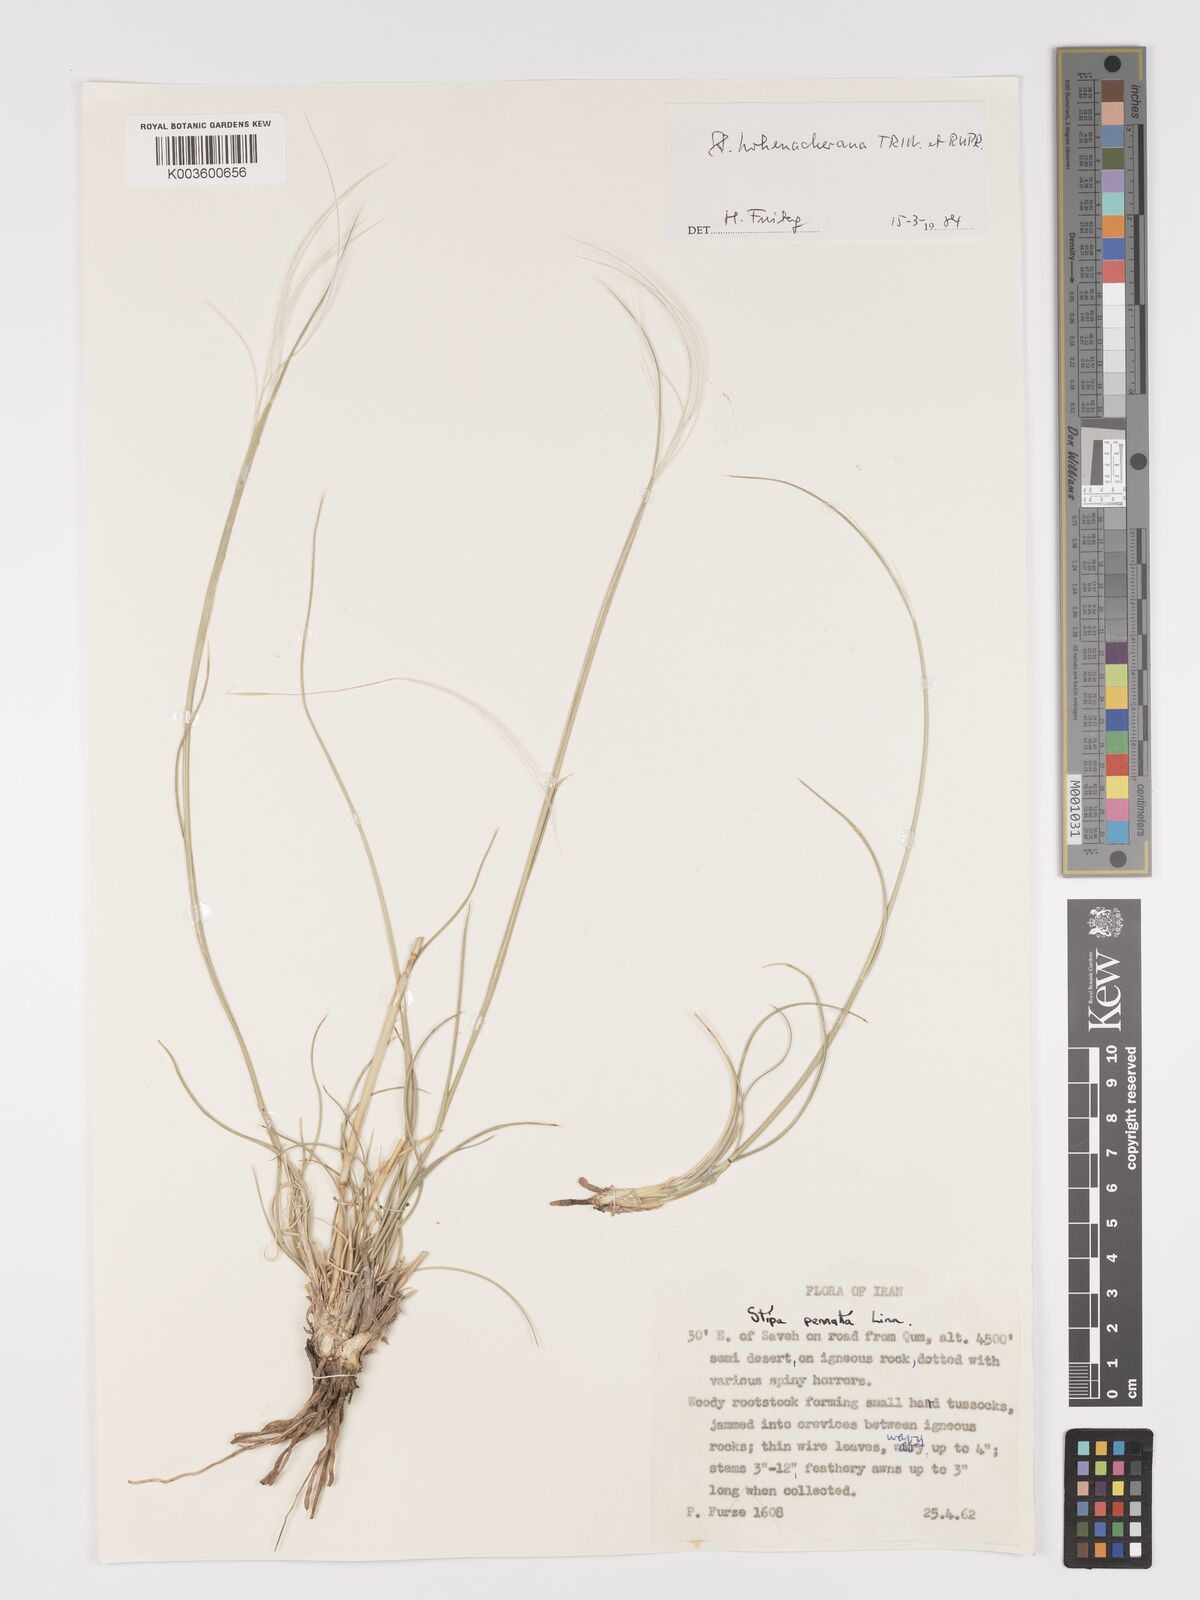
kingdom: Plantae
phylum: Tracheophyta
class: Liliopsida
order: Poales
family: Poaceae
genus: Stipa
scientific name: Stipa hohenackeriana
